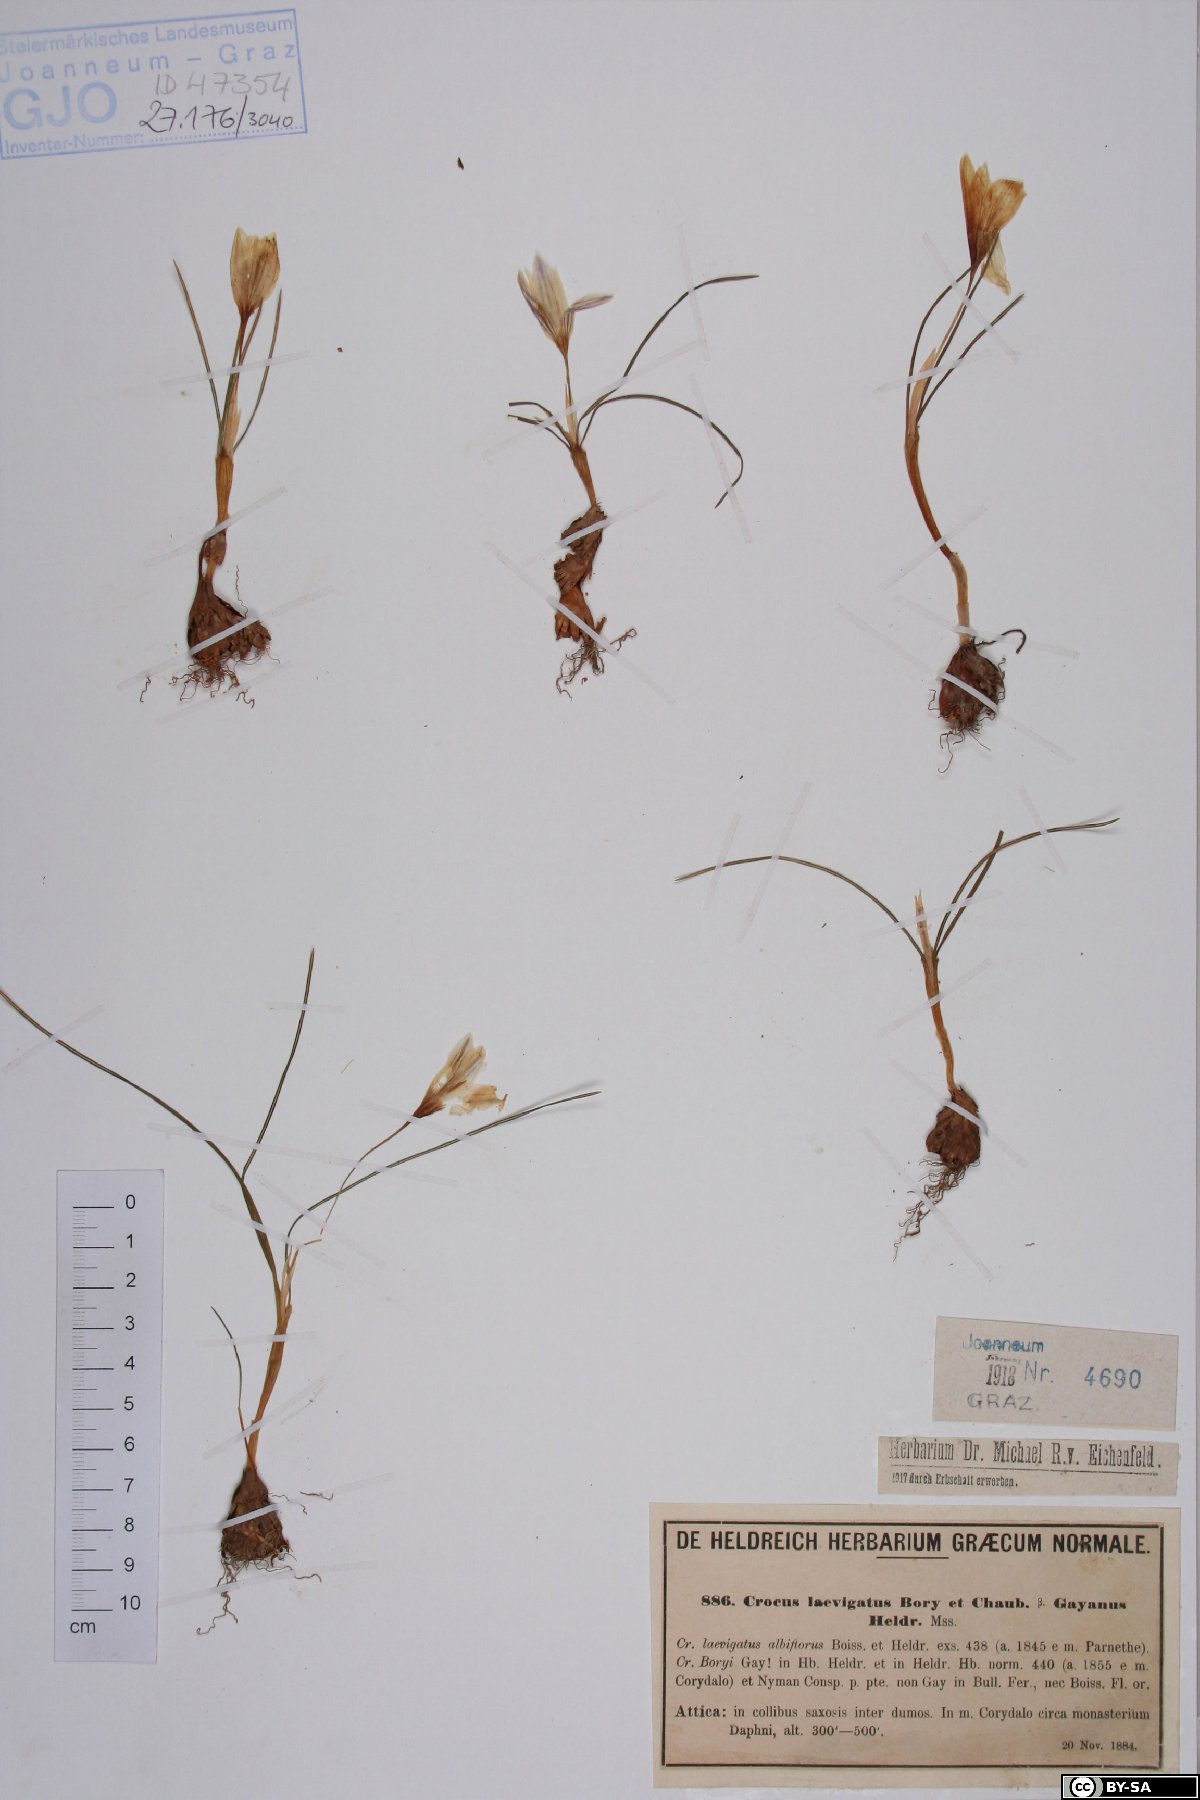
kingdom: Plantae
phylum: Tracheophyta
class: Liliopsida
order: Asparagales
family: Iridaceae
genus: Crocus
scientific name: Crocus laevigatus
